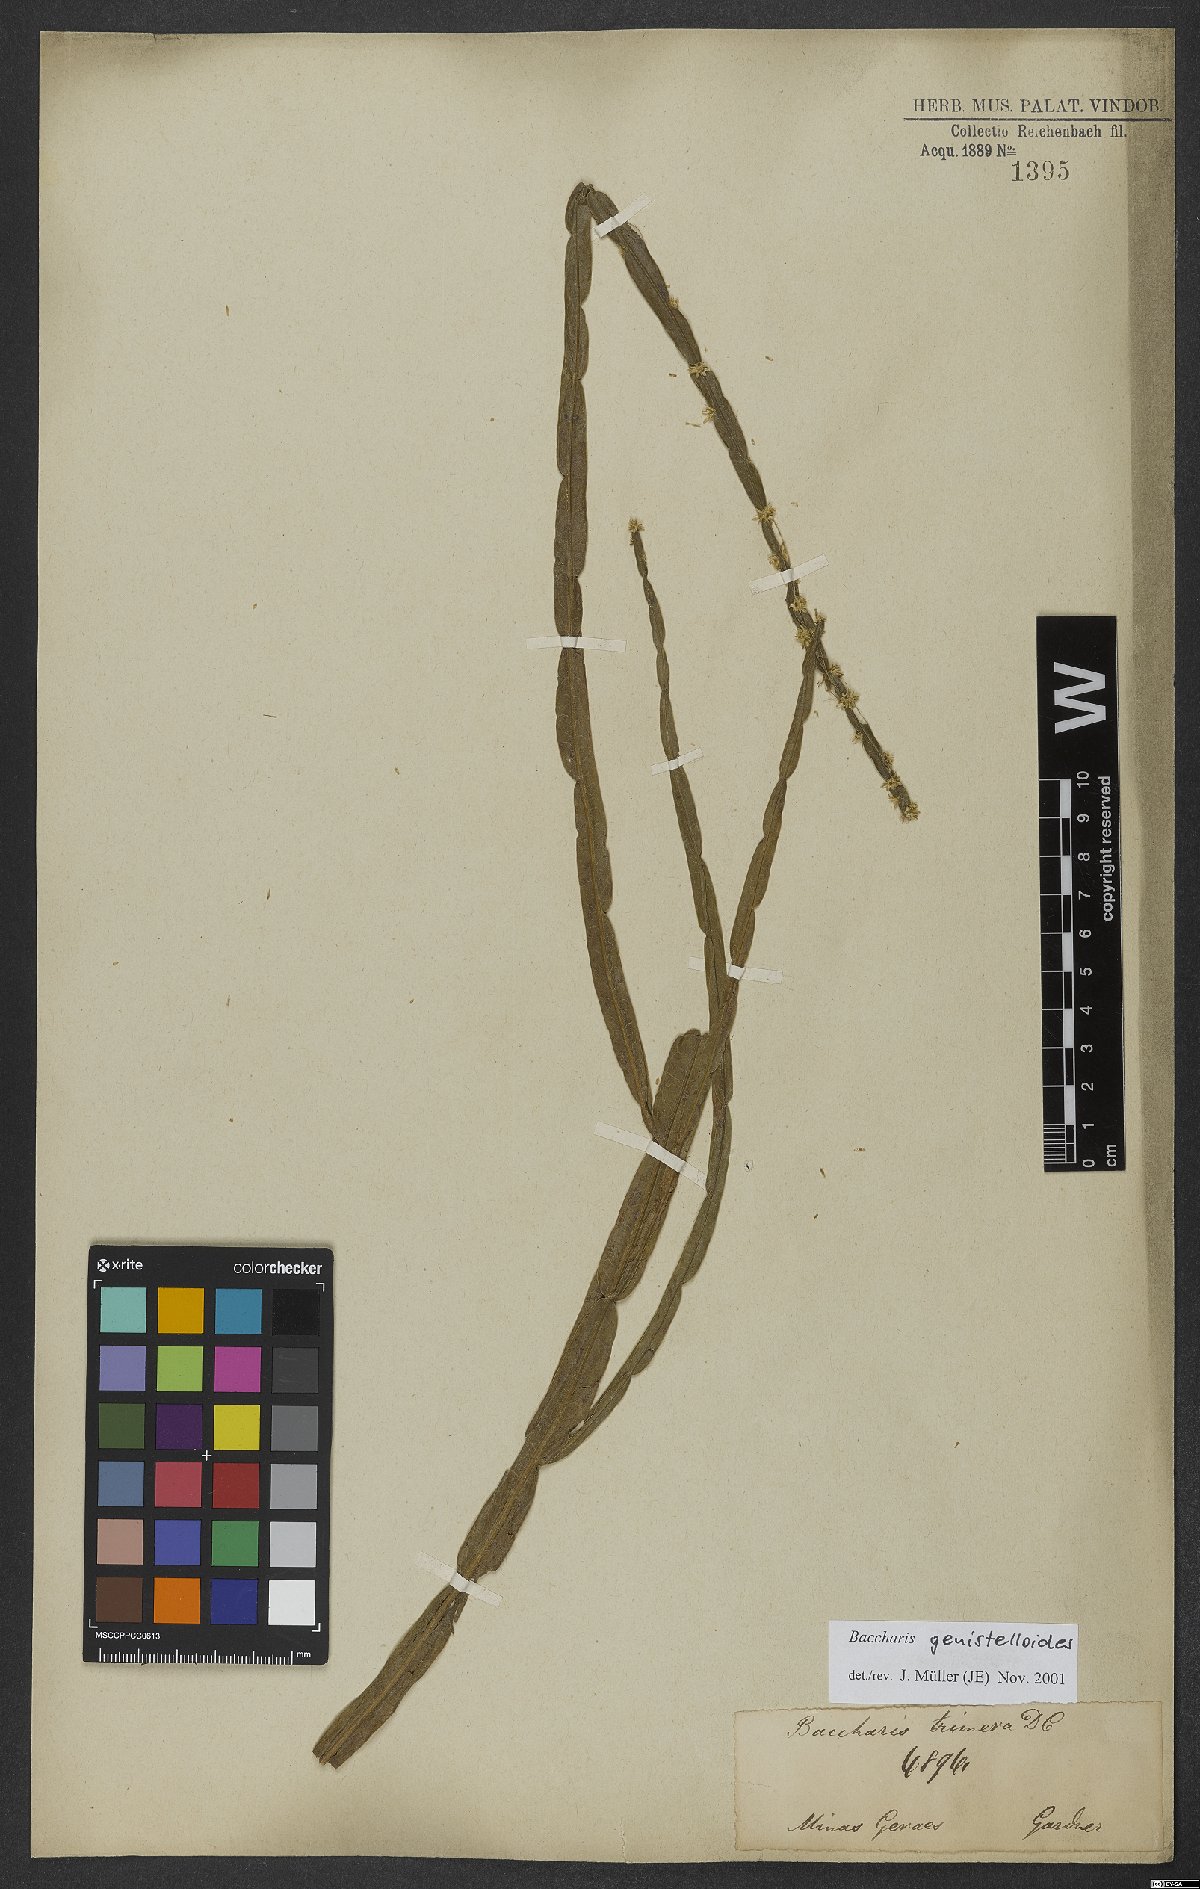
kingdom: Plantae
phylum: Tracheophyta
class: Magnoliopsida
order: Asterales
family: Asteraceae
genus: Baccharis
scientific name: Baccharis genistelloides
